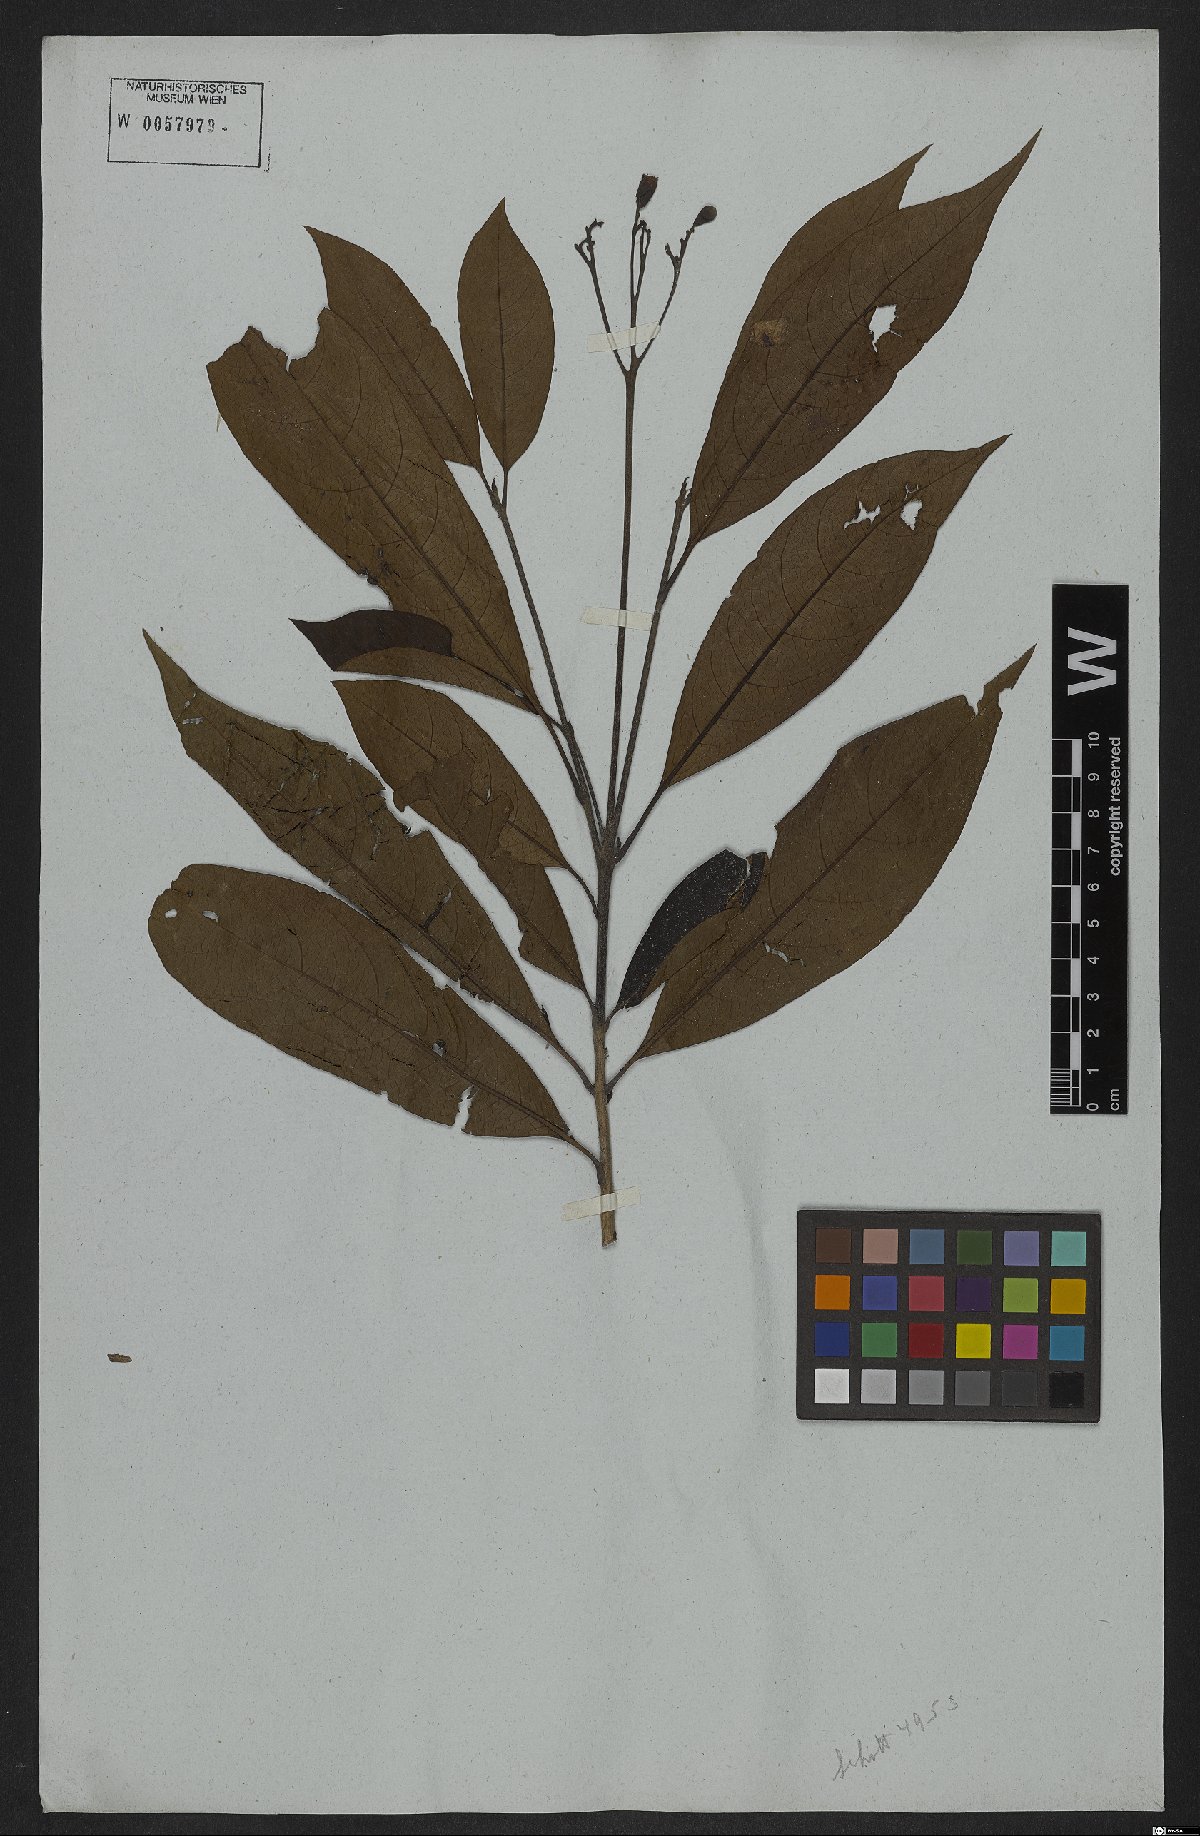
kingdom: Plantae
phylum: Tracheophyta
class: Magnoliopsida
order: Boraginales
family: Cordiaceae
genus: Cordia
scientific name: Cordia glabra
